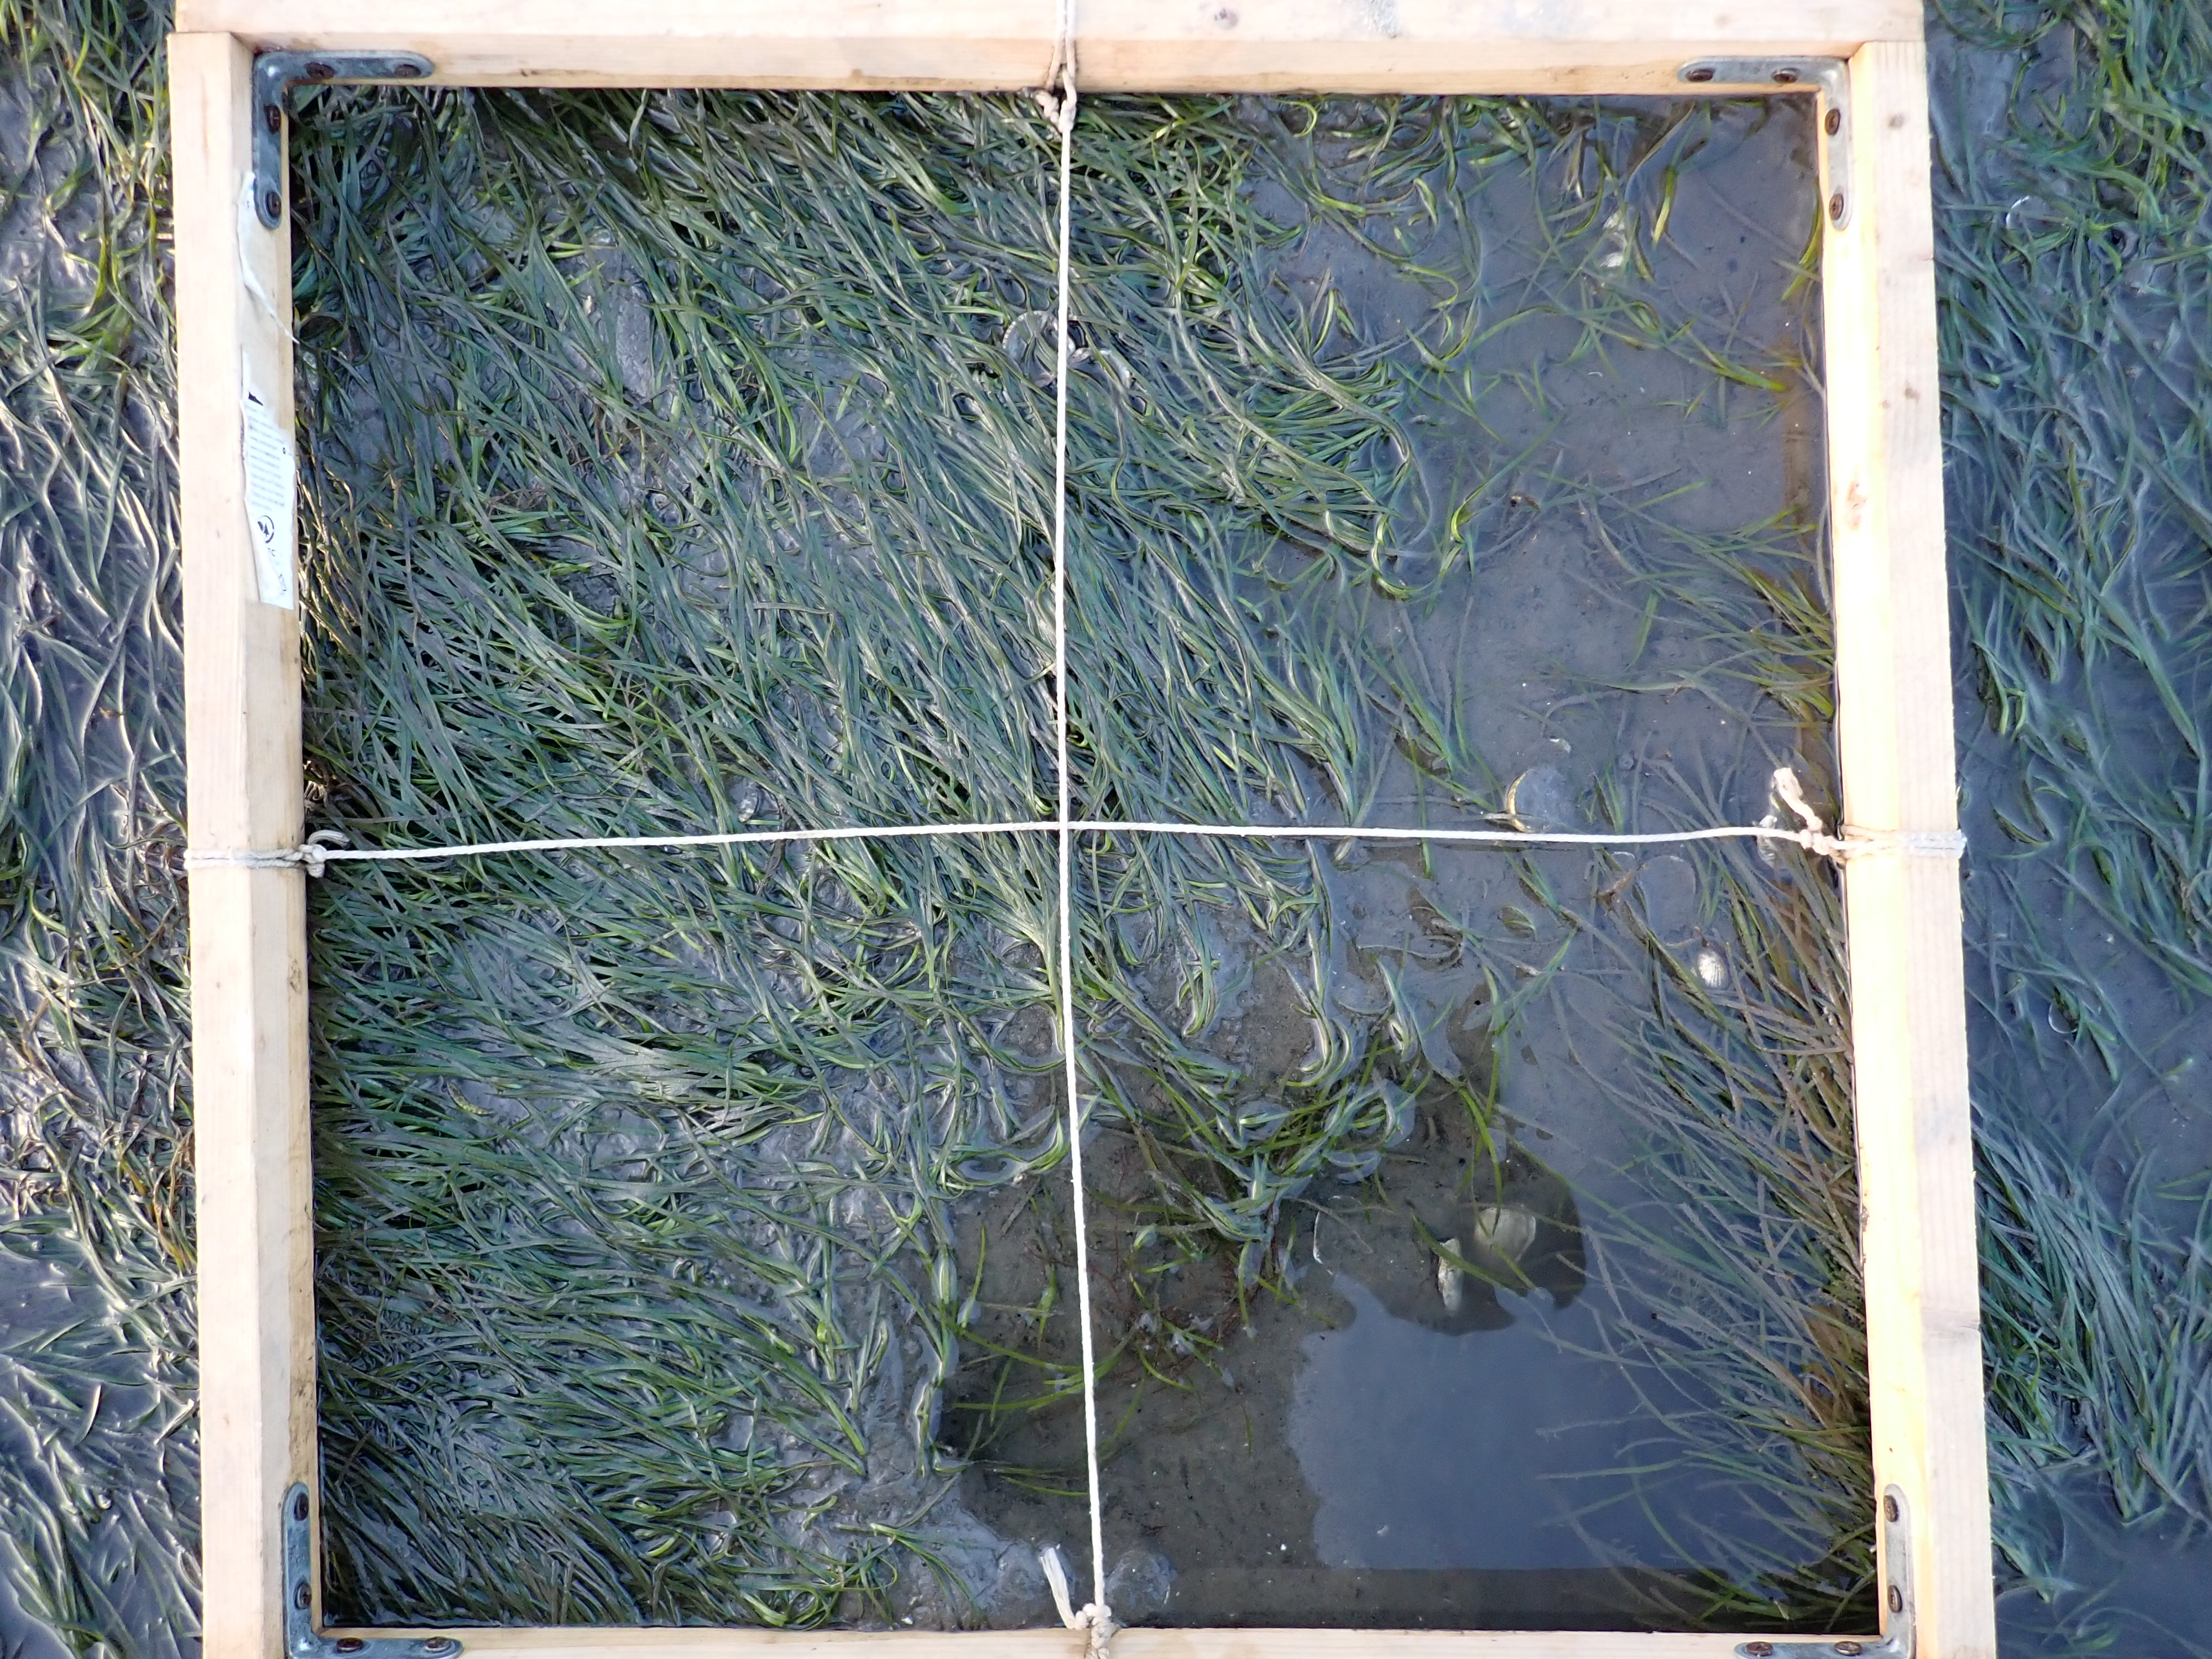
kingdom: Plantae
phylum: Tracheophyta
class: Liliopsida
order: Alismatales
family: Zosteraceae
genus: Zostera
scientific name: Zostera noltii
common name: Dwarf eelgrass
